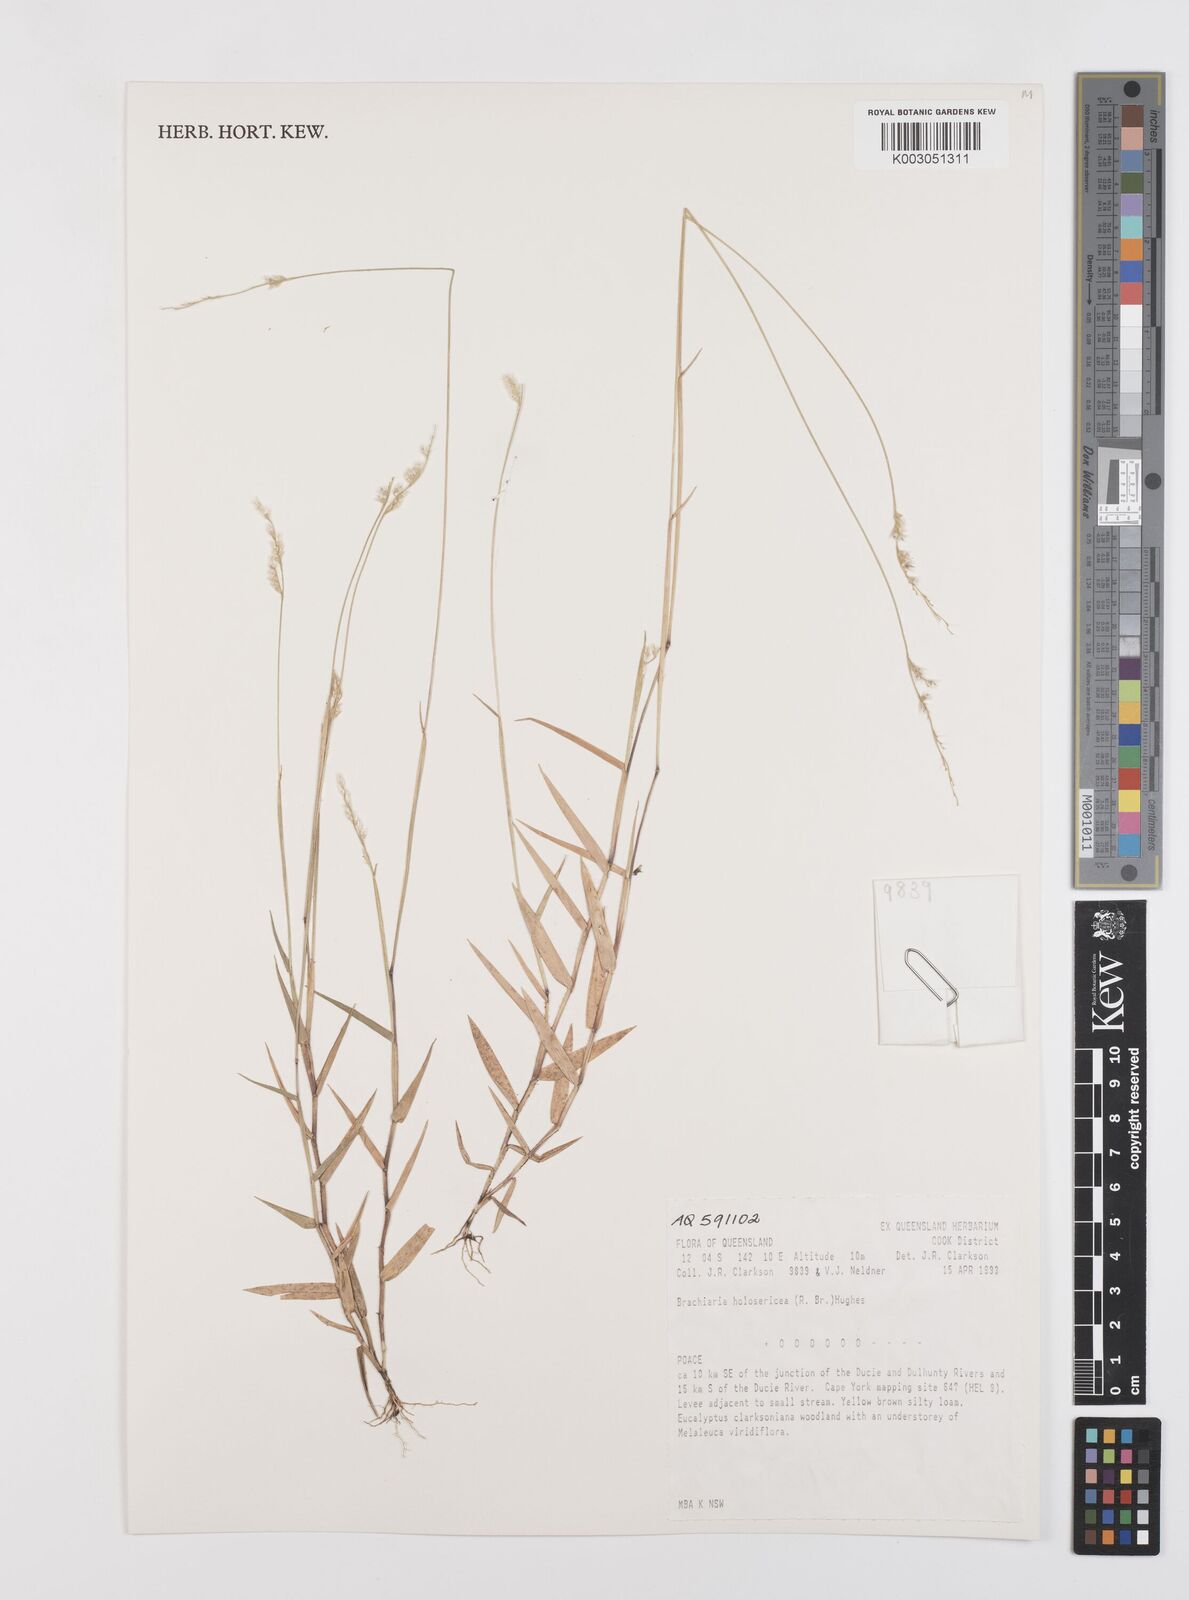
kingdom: Plantae
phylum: Tracheophyta
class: Liliopsida
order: Poales
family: Poaceae
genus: Urochloa
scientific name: Urochloa holosericea
